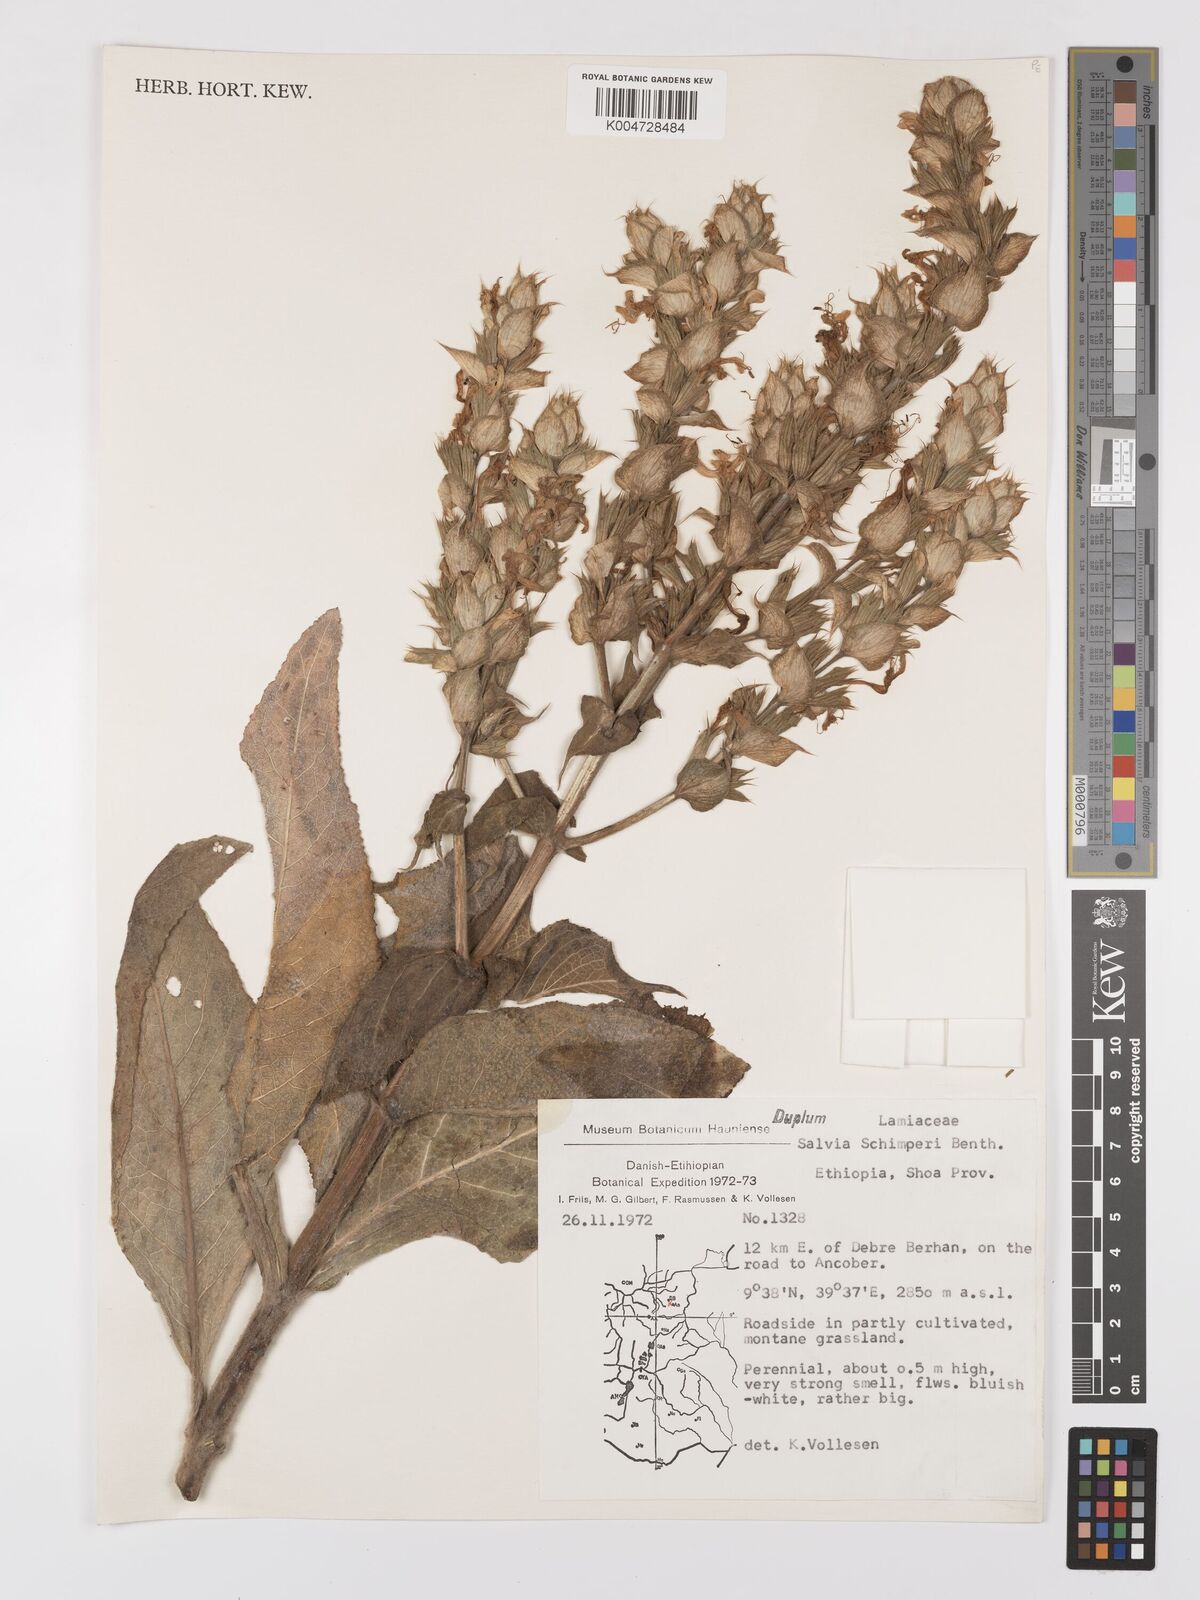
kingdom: Plantae
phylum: Tracheophyta
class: Magnoliopsida
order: Lamiales
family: Lamiaceae
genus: Salvia
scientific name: Salvia schimperi
